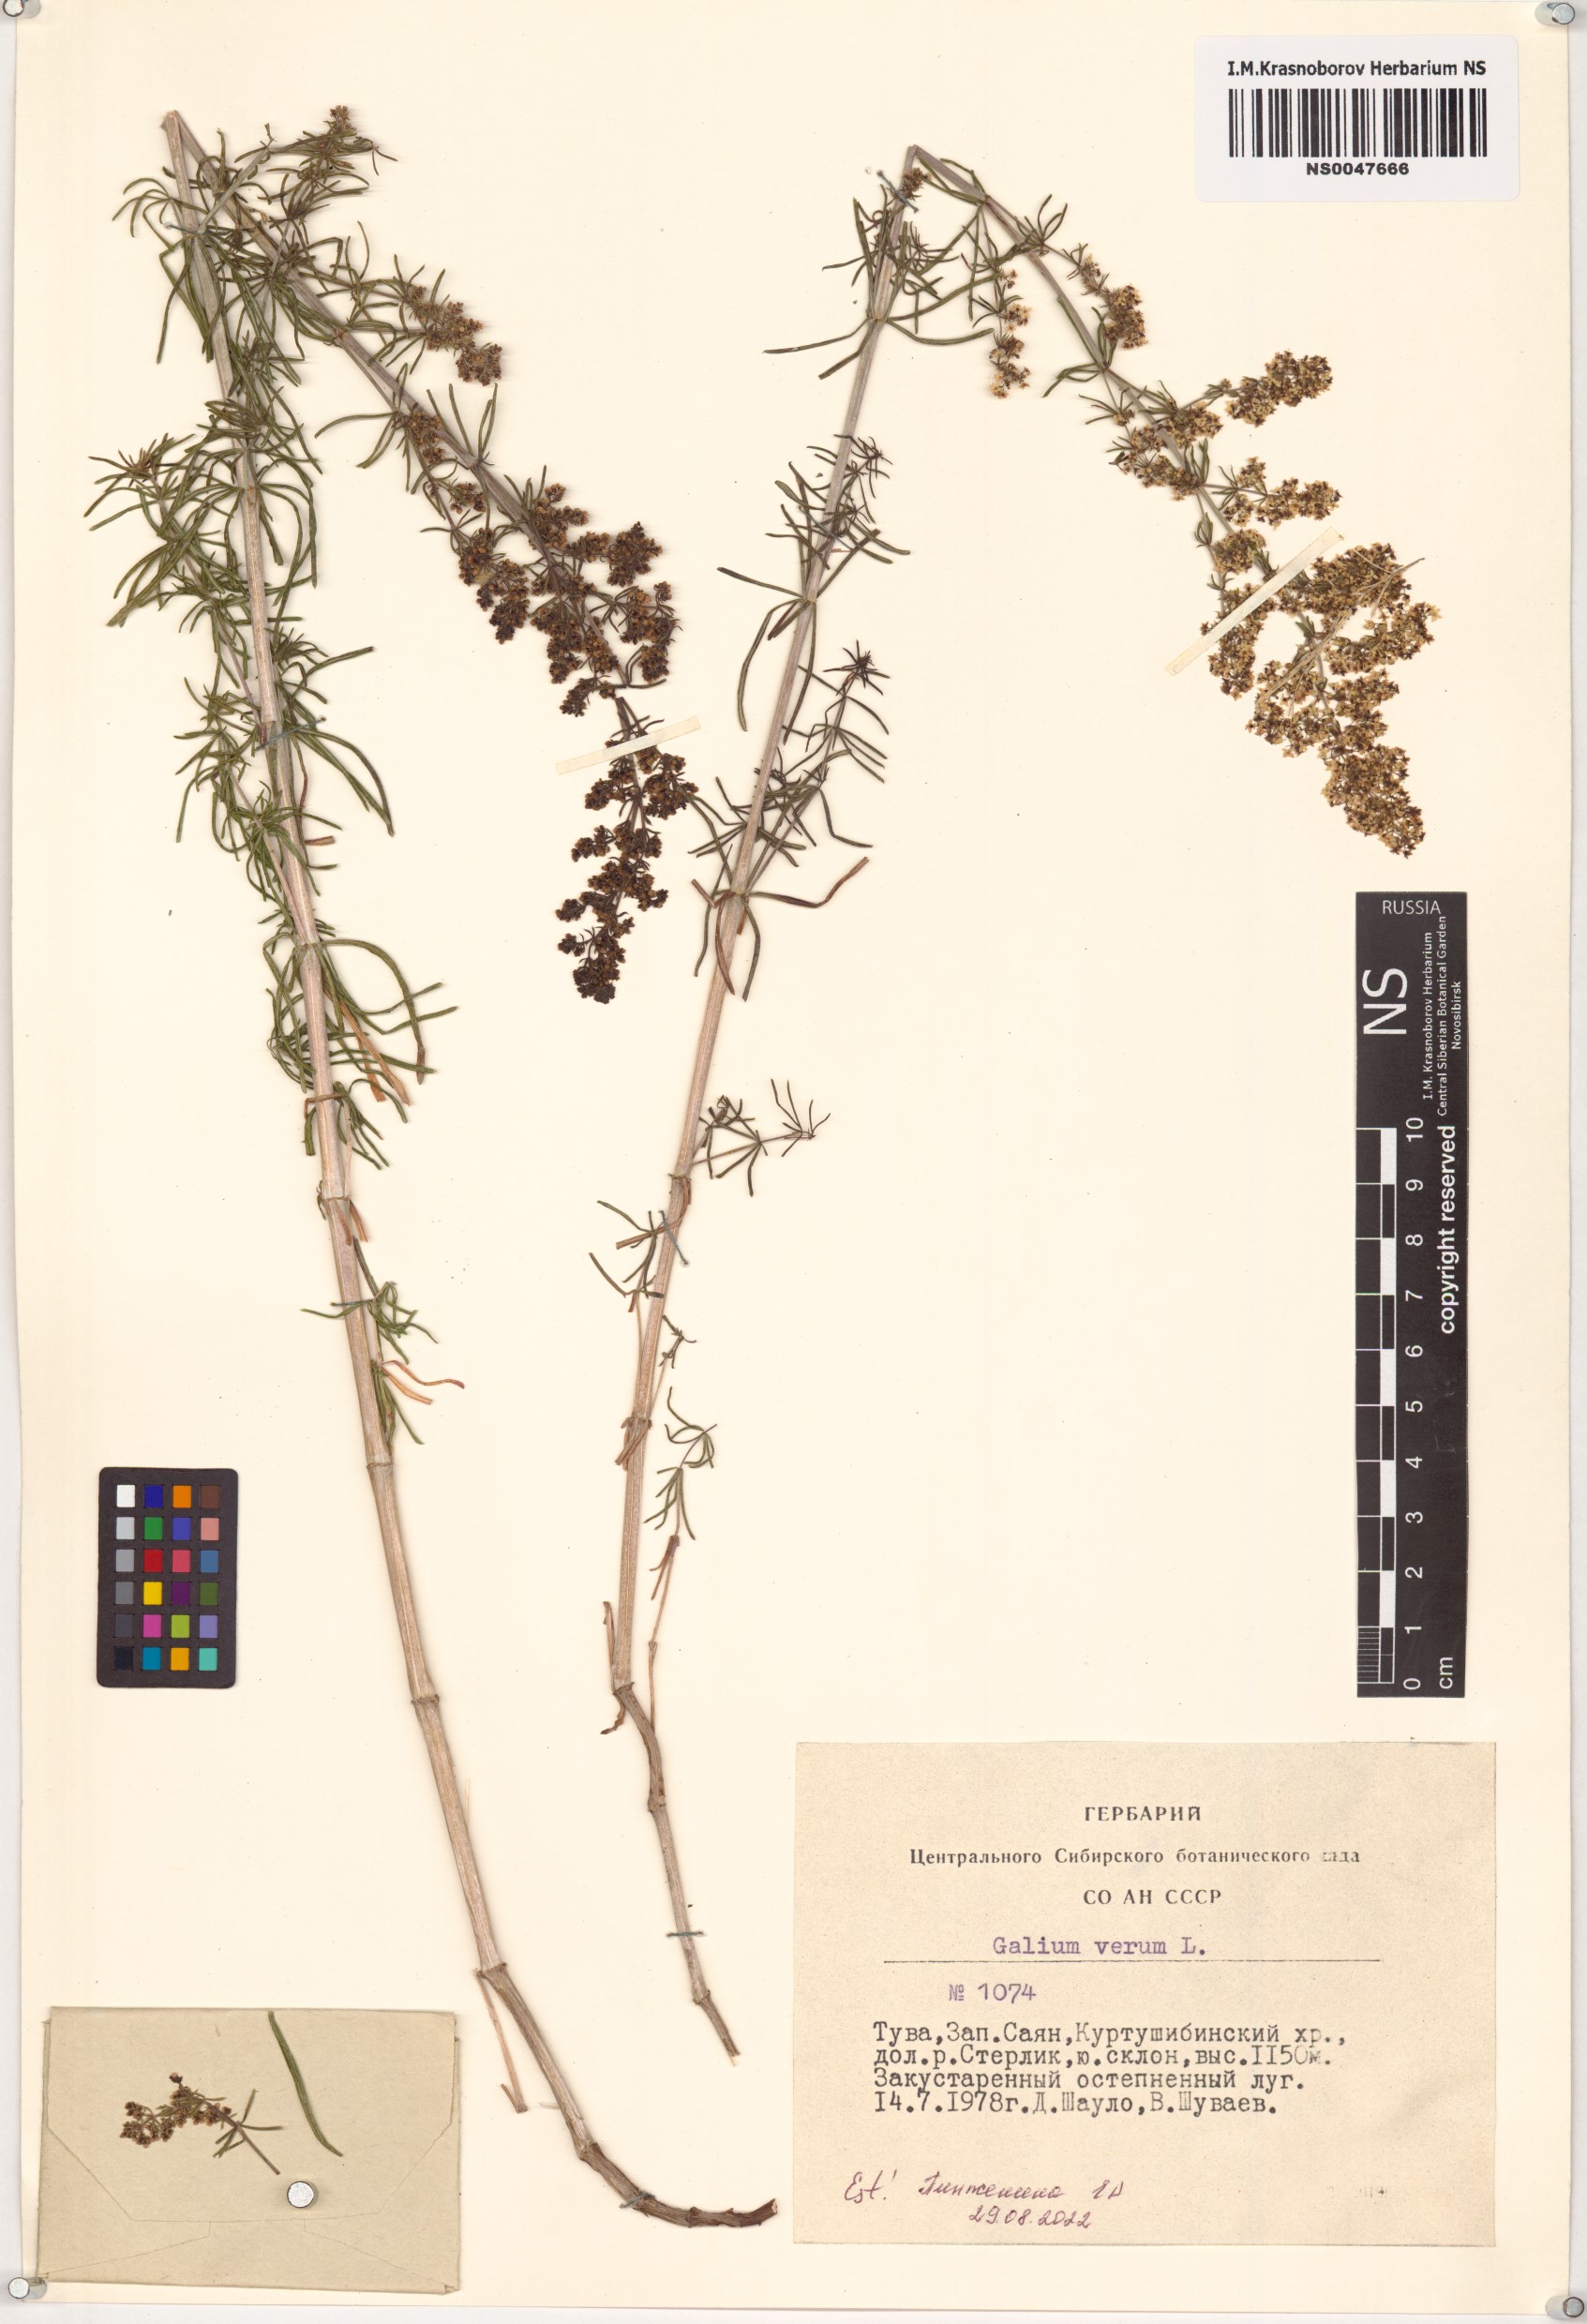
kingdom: Plantae
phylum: Tracheophyta
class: Magnoliopsida
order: Gentianales
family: Rubiaceae
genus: Galium
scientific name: Galium verum
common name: Lady's bedstraw
